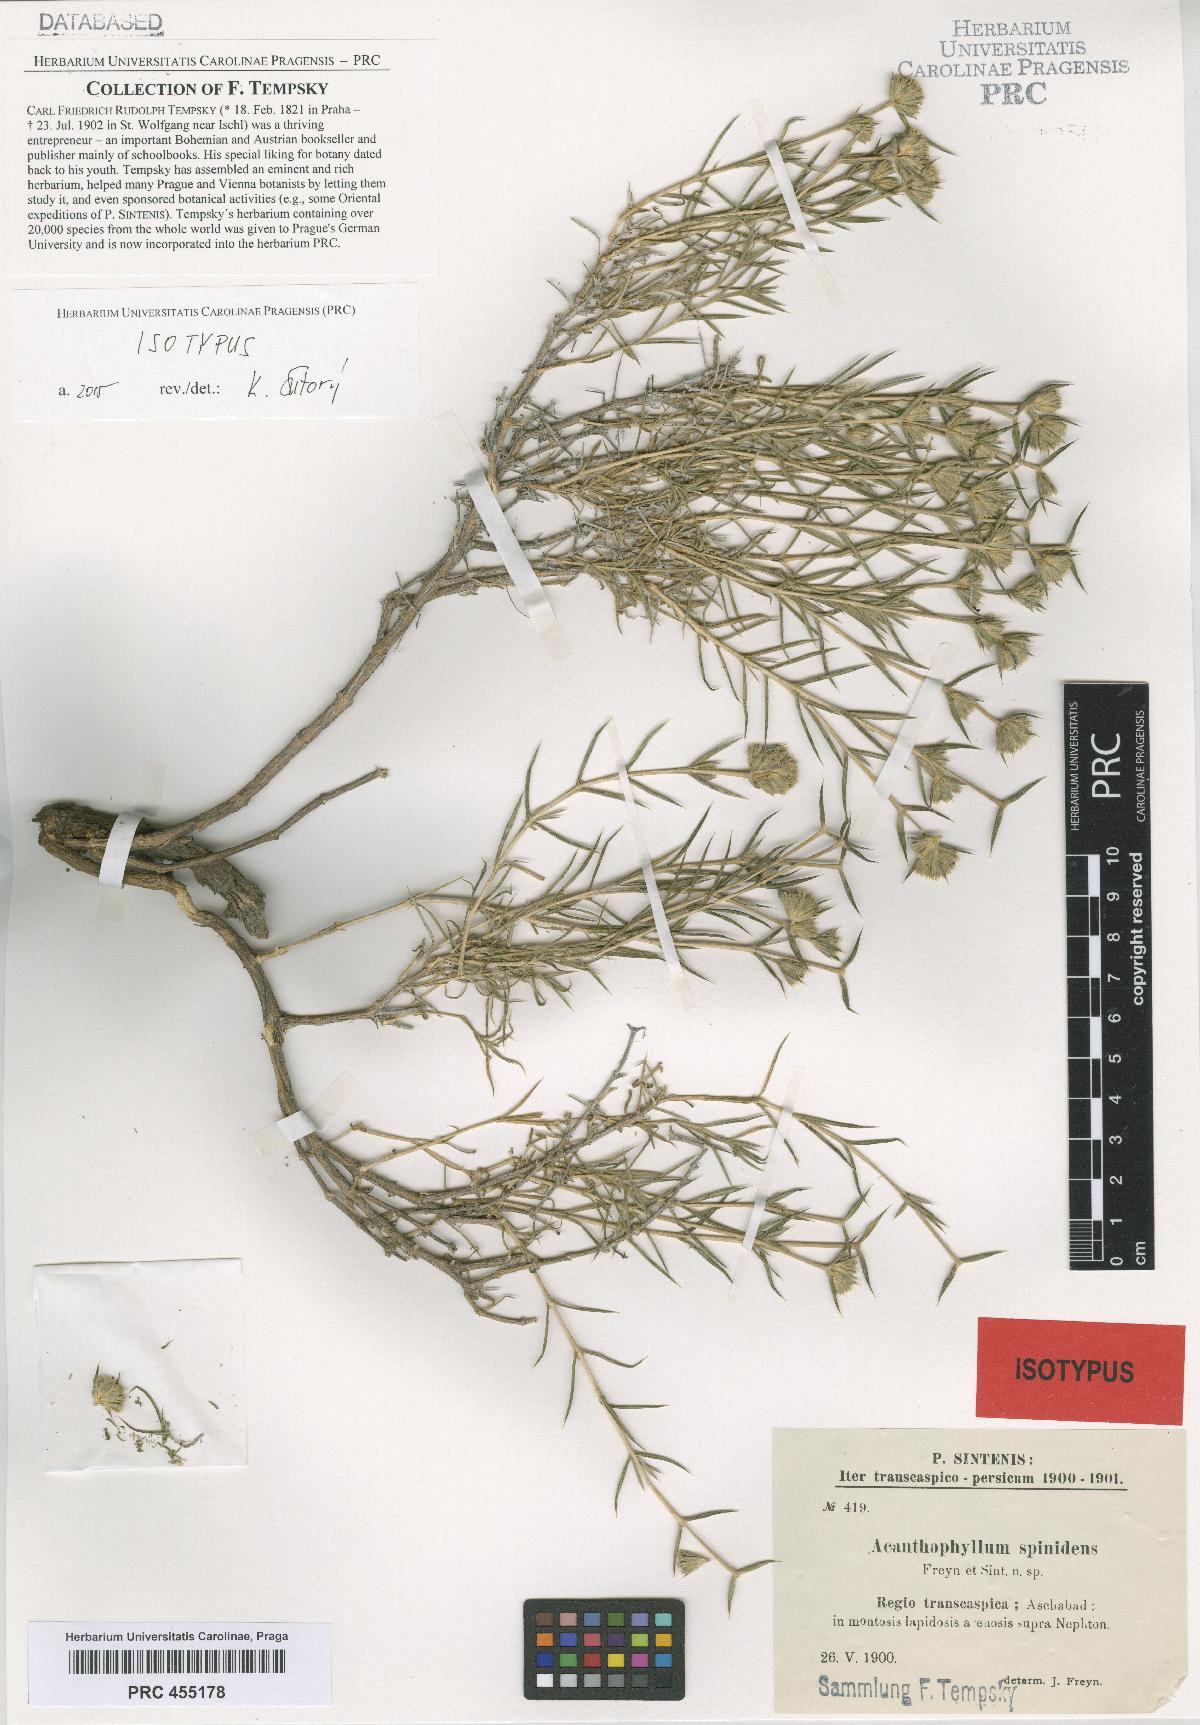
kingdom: Plantae
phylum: Tracheophyta
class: Magnoliopsida
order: Caryophyllales
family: Caryophyllaceae
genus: Acanthophyllum
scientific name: Acanthophyllum sordidum
